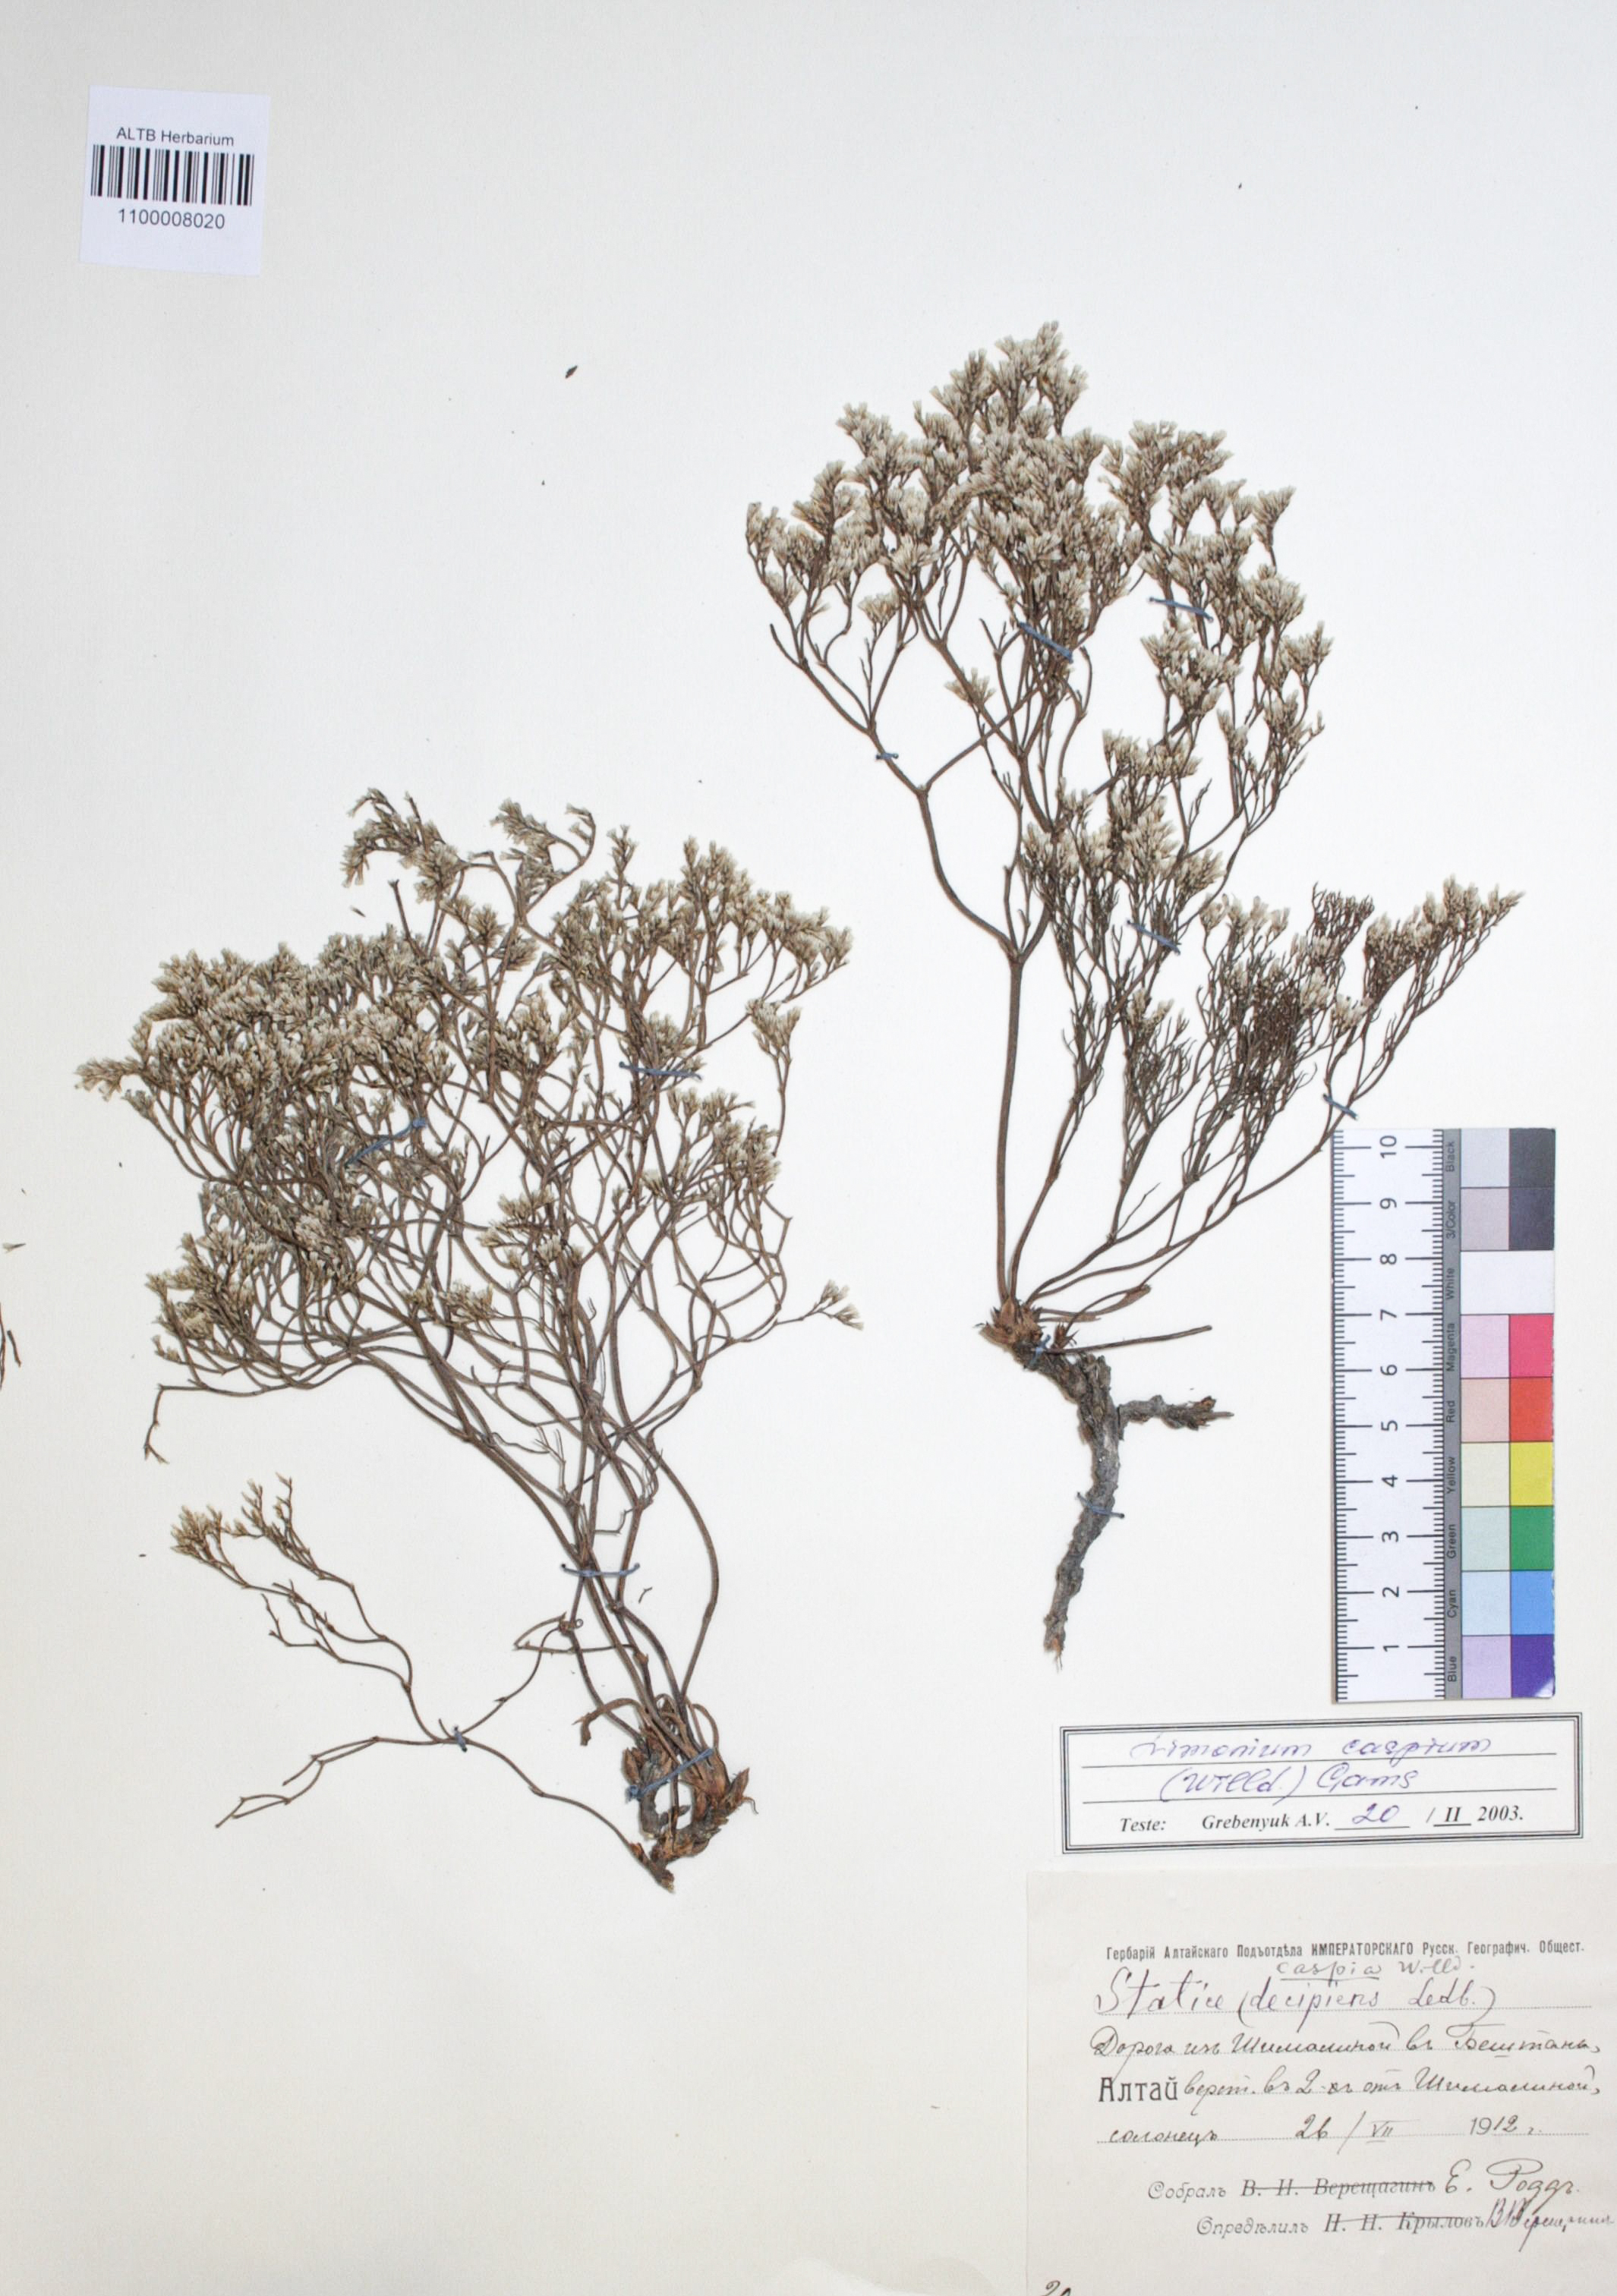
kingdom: Plantae
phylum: Tracheophyta
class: Magnoliopsida
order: Caryophyllales
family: Plumbaginaceae
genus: Limonium
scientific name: Limonium bellidifolium
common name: Matted sea-lavender
